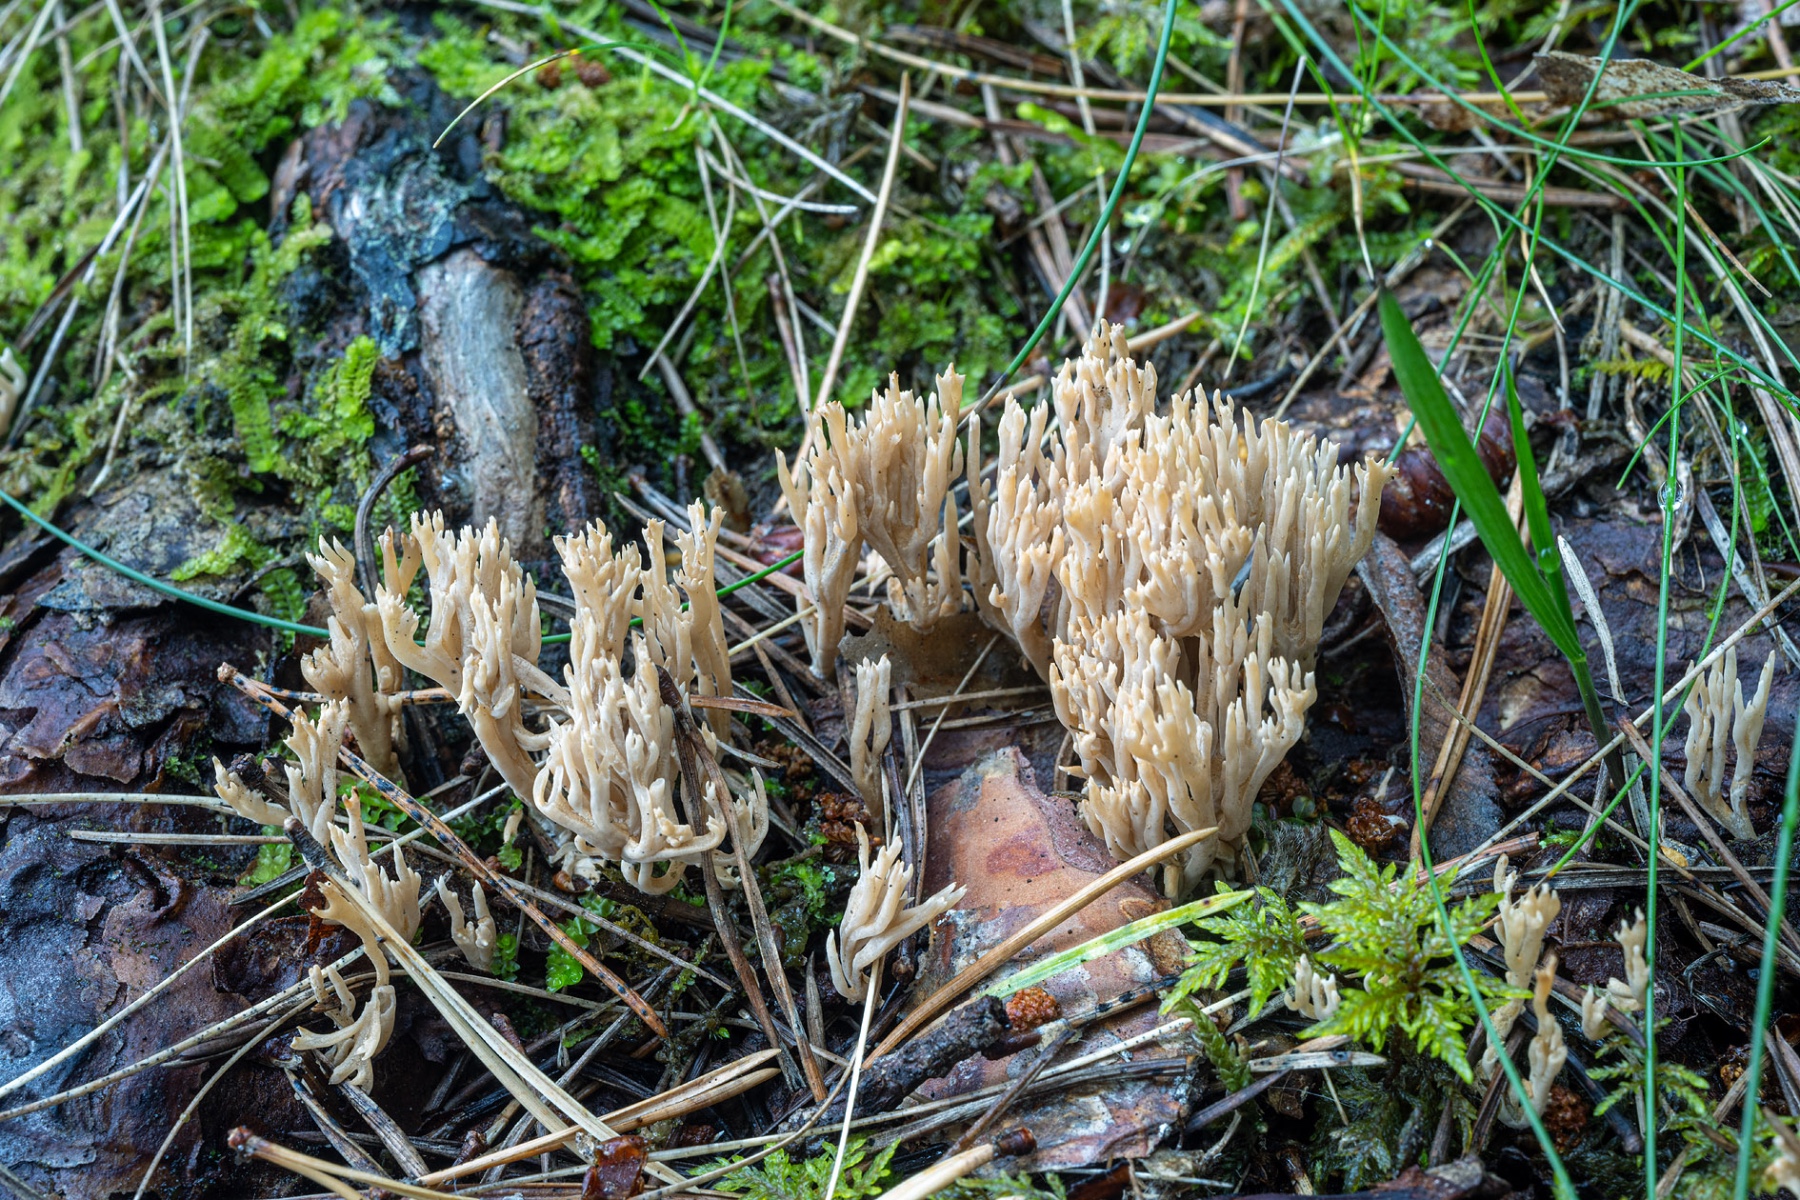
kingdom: Fungi
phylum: Basidiomycota
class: Agaricomycetes
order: Gomphales
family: Gomphaceae
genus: Ramaria
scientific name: Ramaria gracilis
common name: anis-koralsvamp
